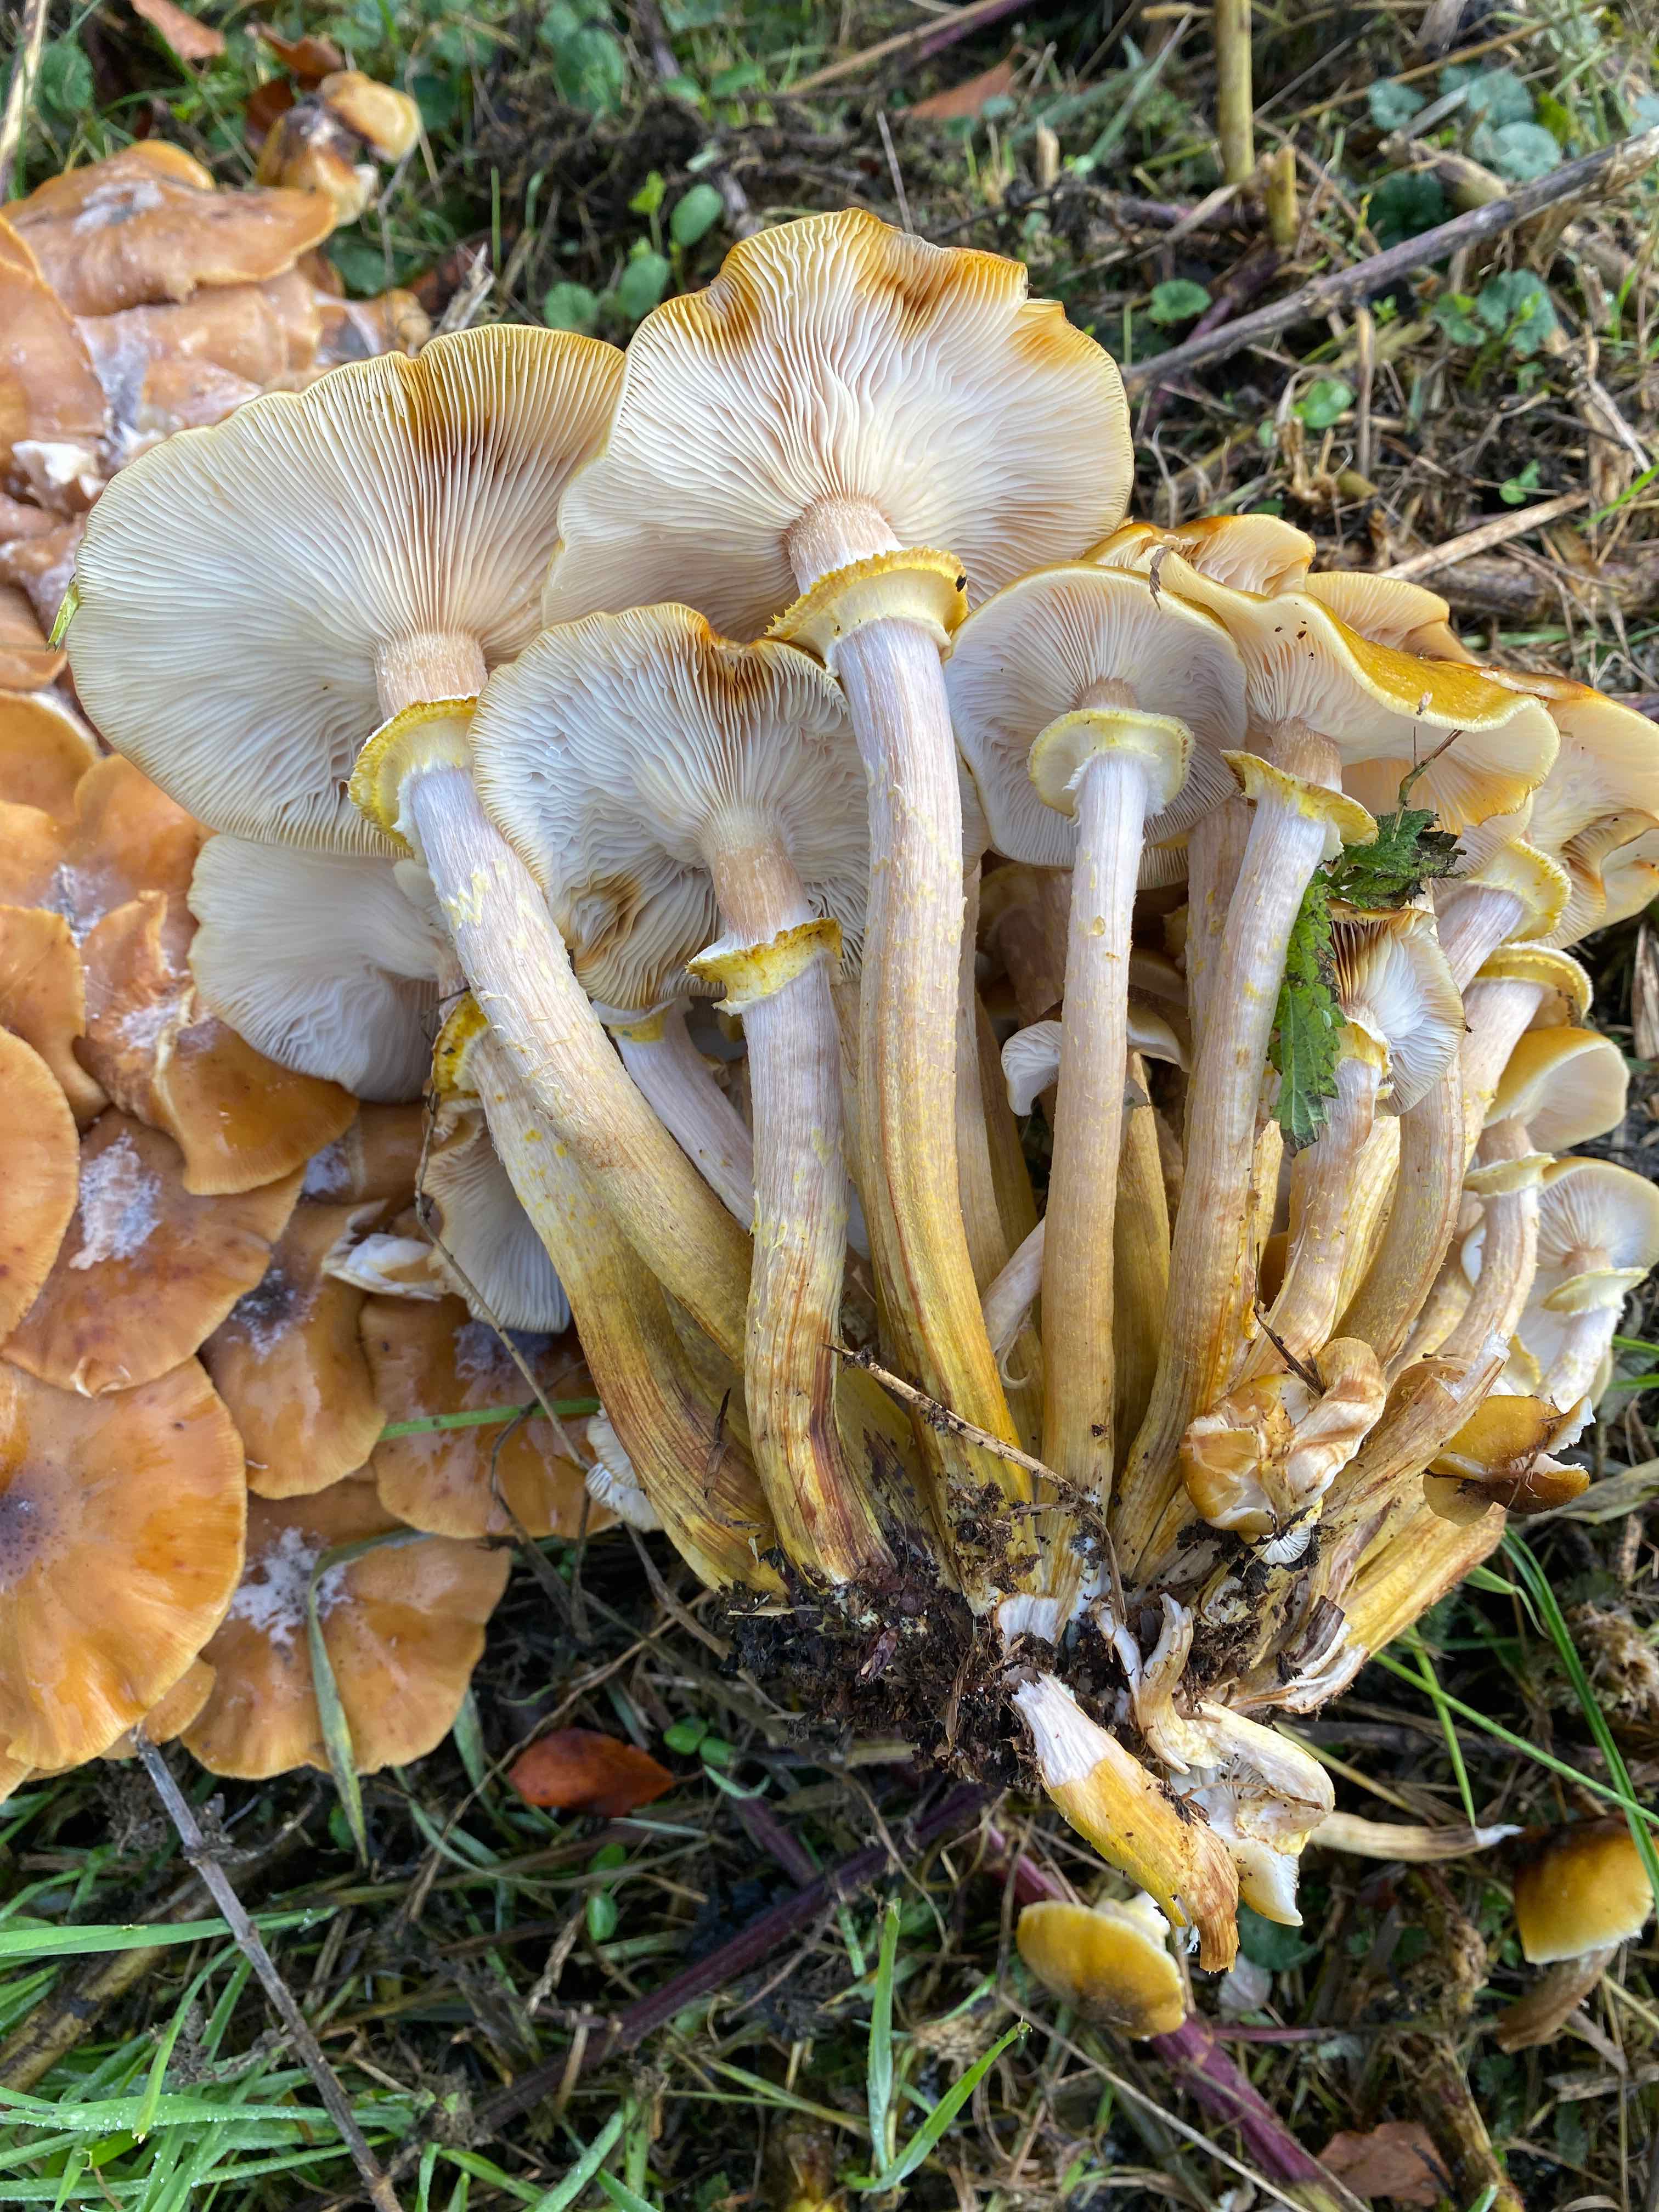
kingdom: Fungi
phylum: Basidiomycota
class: Agaricomycetes
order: Agaricales
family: Physalacriaceae
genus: Armillaria
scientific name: Armillaria mellea
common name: ægte honningsvamp
